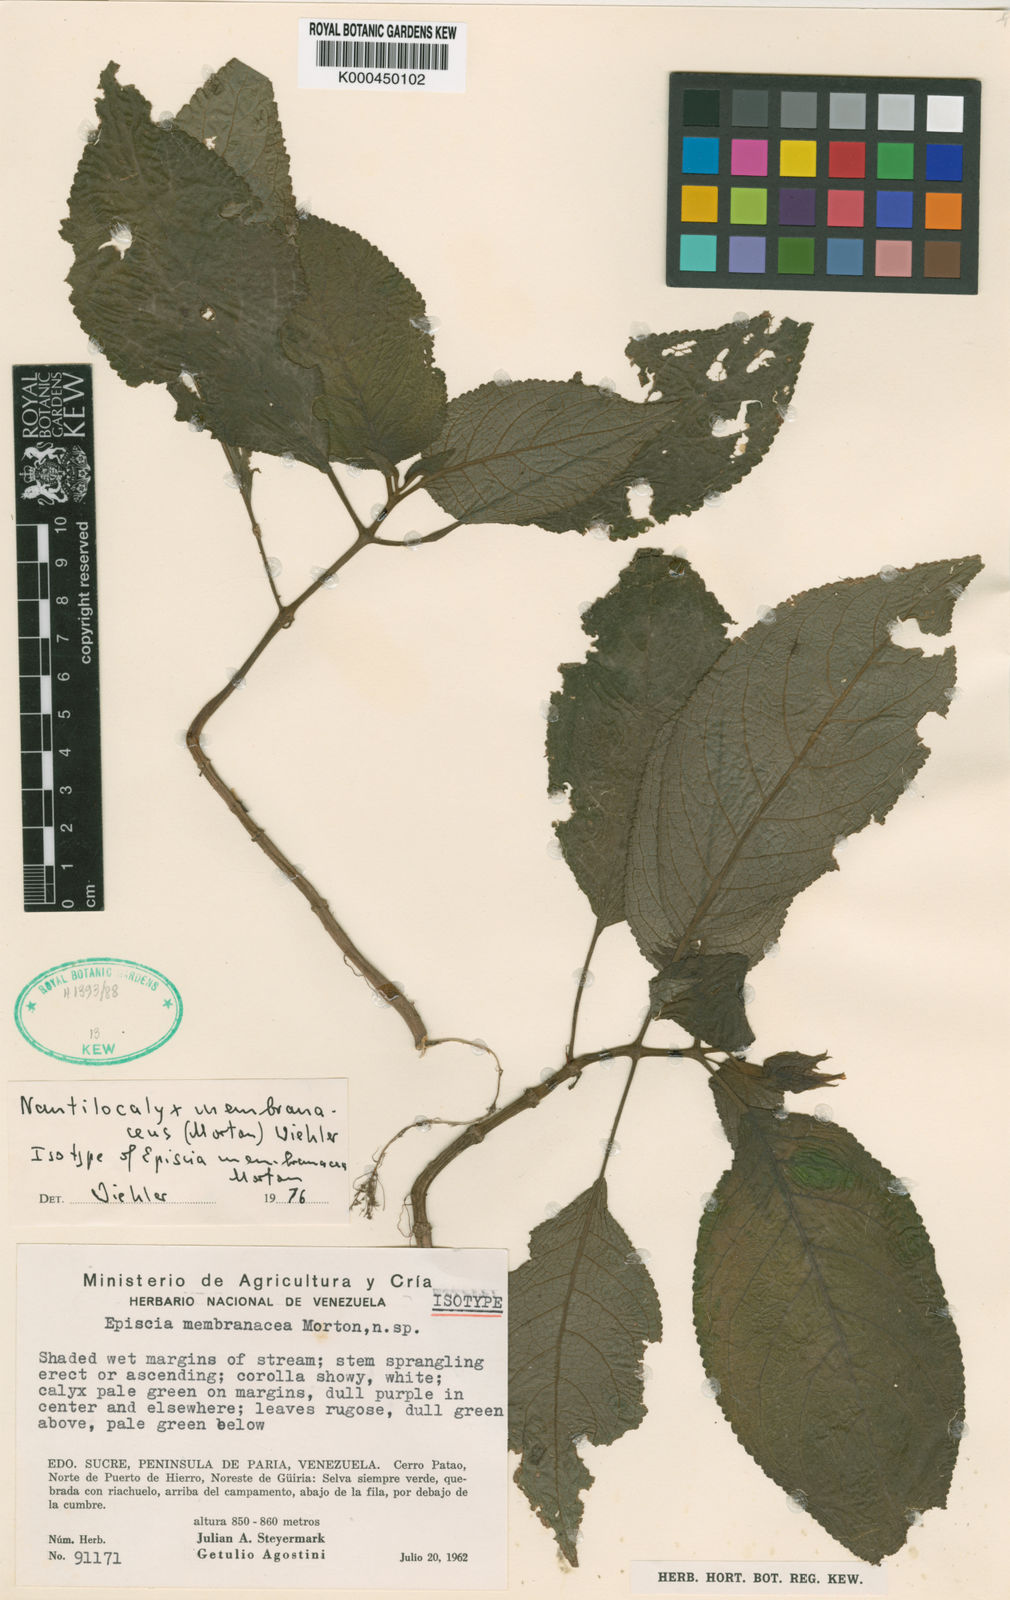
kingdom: Plantae
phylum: Tracheophyta
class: Magnoliopsida
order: Lamiales
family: Gesneriaceae
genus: Nautilocalyx
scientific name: Nautilocalyx membranaceus
